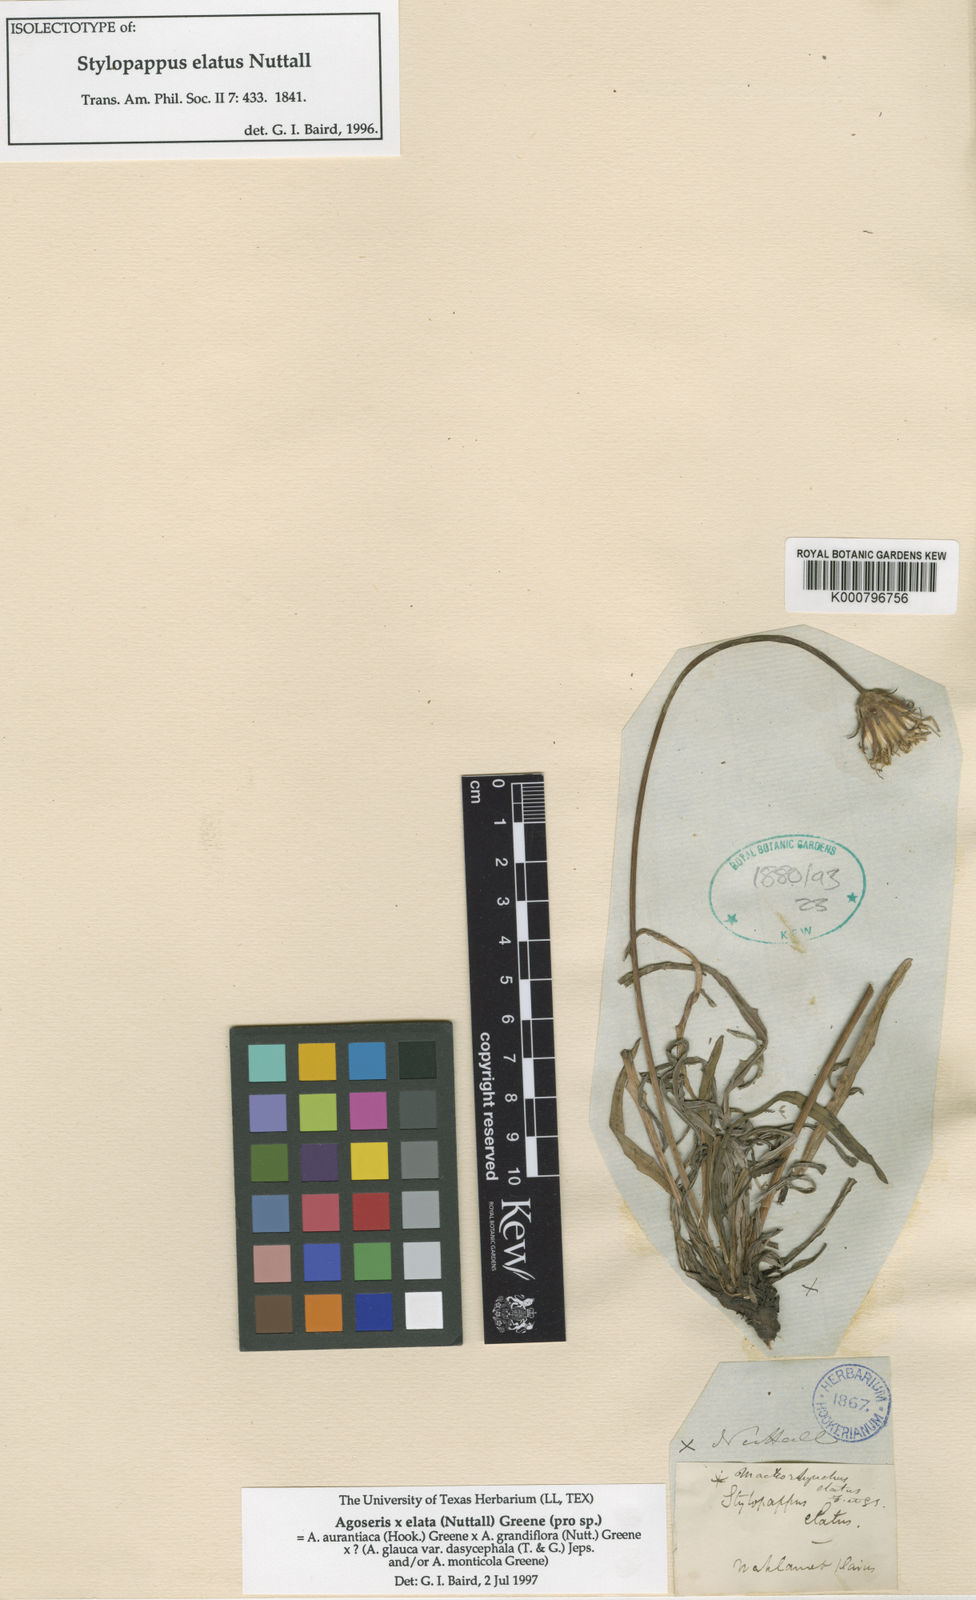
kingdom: Plantae
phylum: Tracheophyta
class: Magnoliopsida
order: Asterales
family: Asteraceae
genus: Agoseris
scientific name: Agoseris aurantiaca
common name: Mountain agoseris
